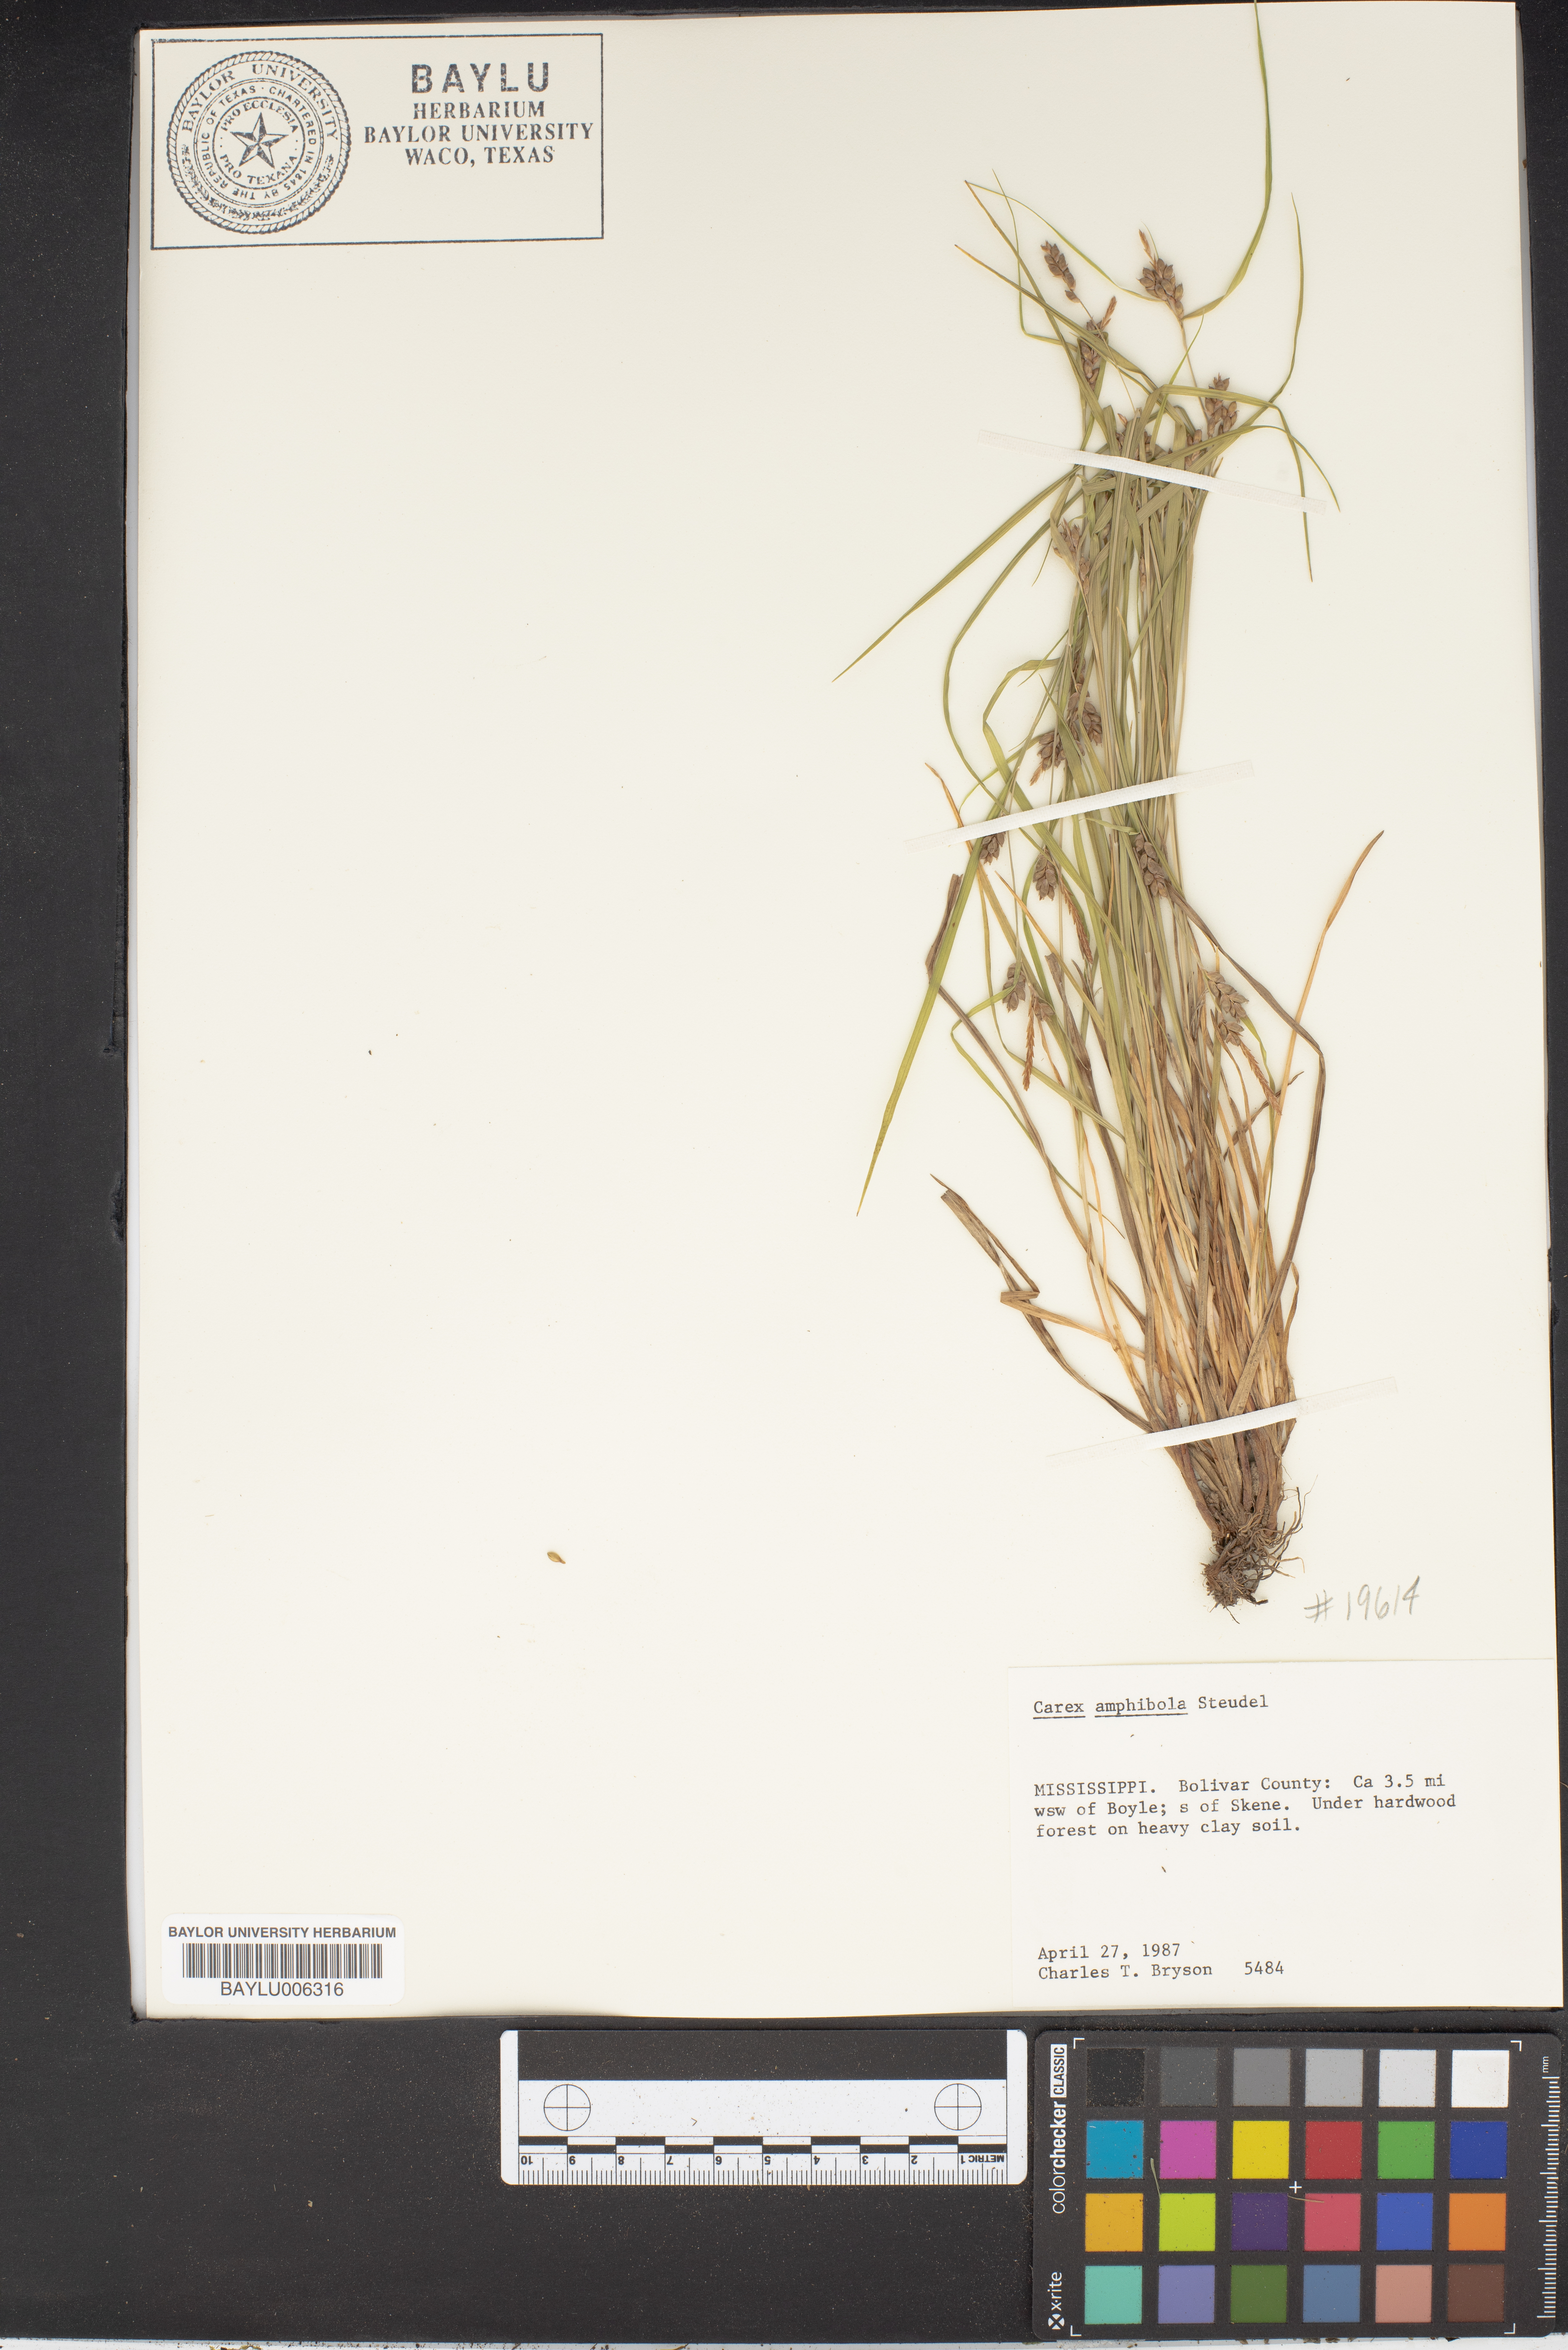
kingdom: Plantae
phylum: Tracheophyta
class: Liliopsida
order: Poales
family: Cyperaceae
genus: Carex
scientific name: Carex amphibola
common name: Amphibious sedge
